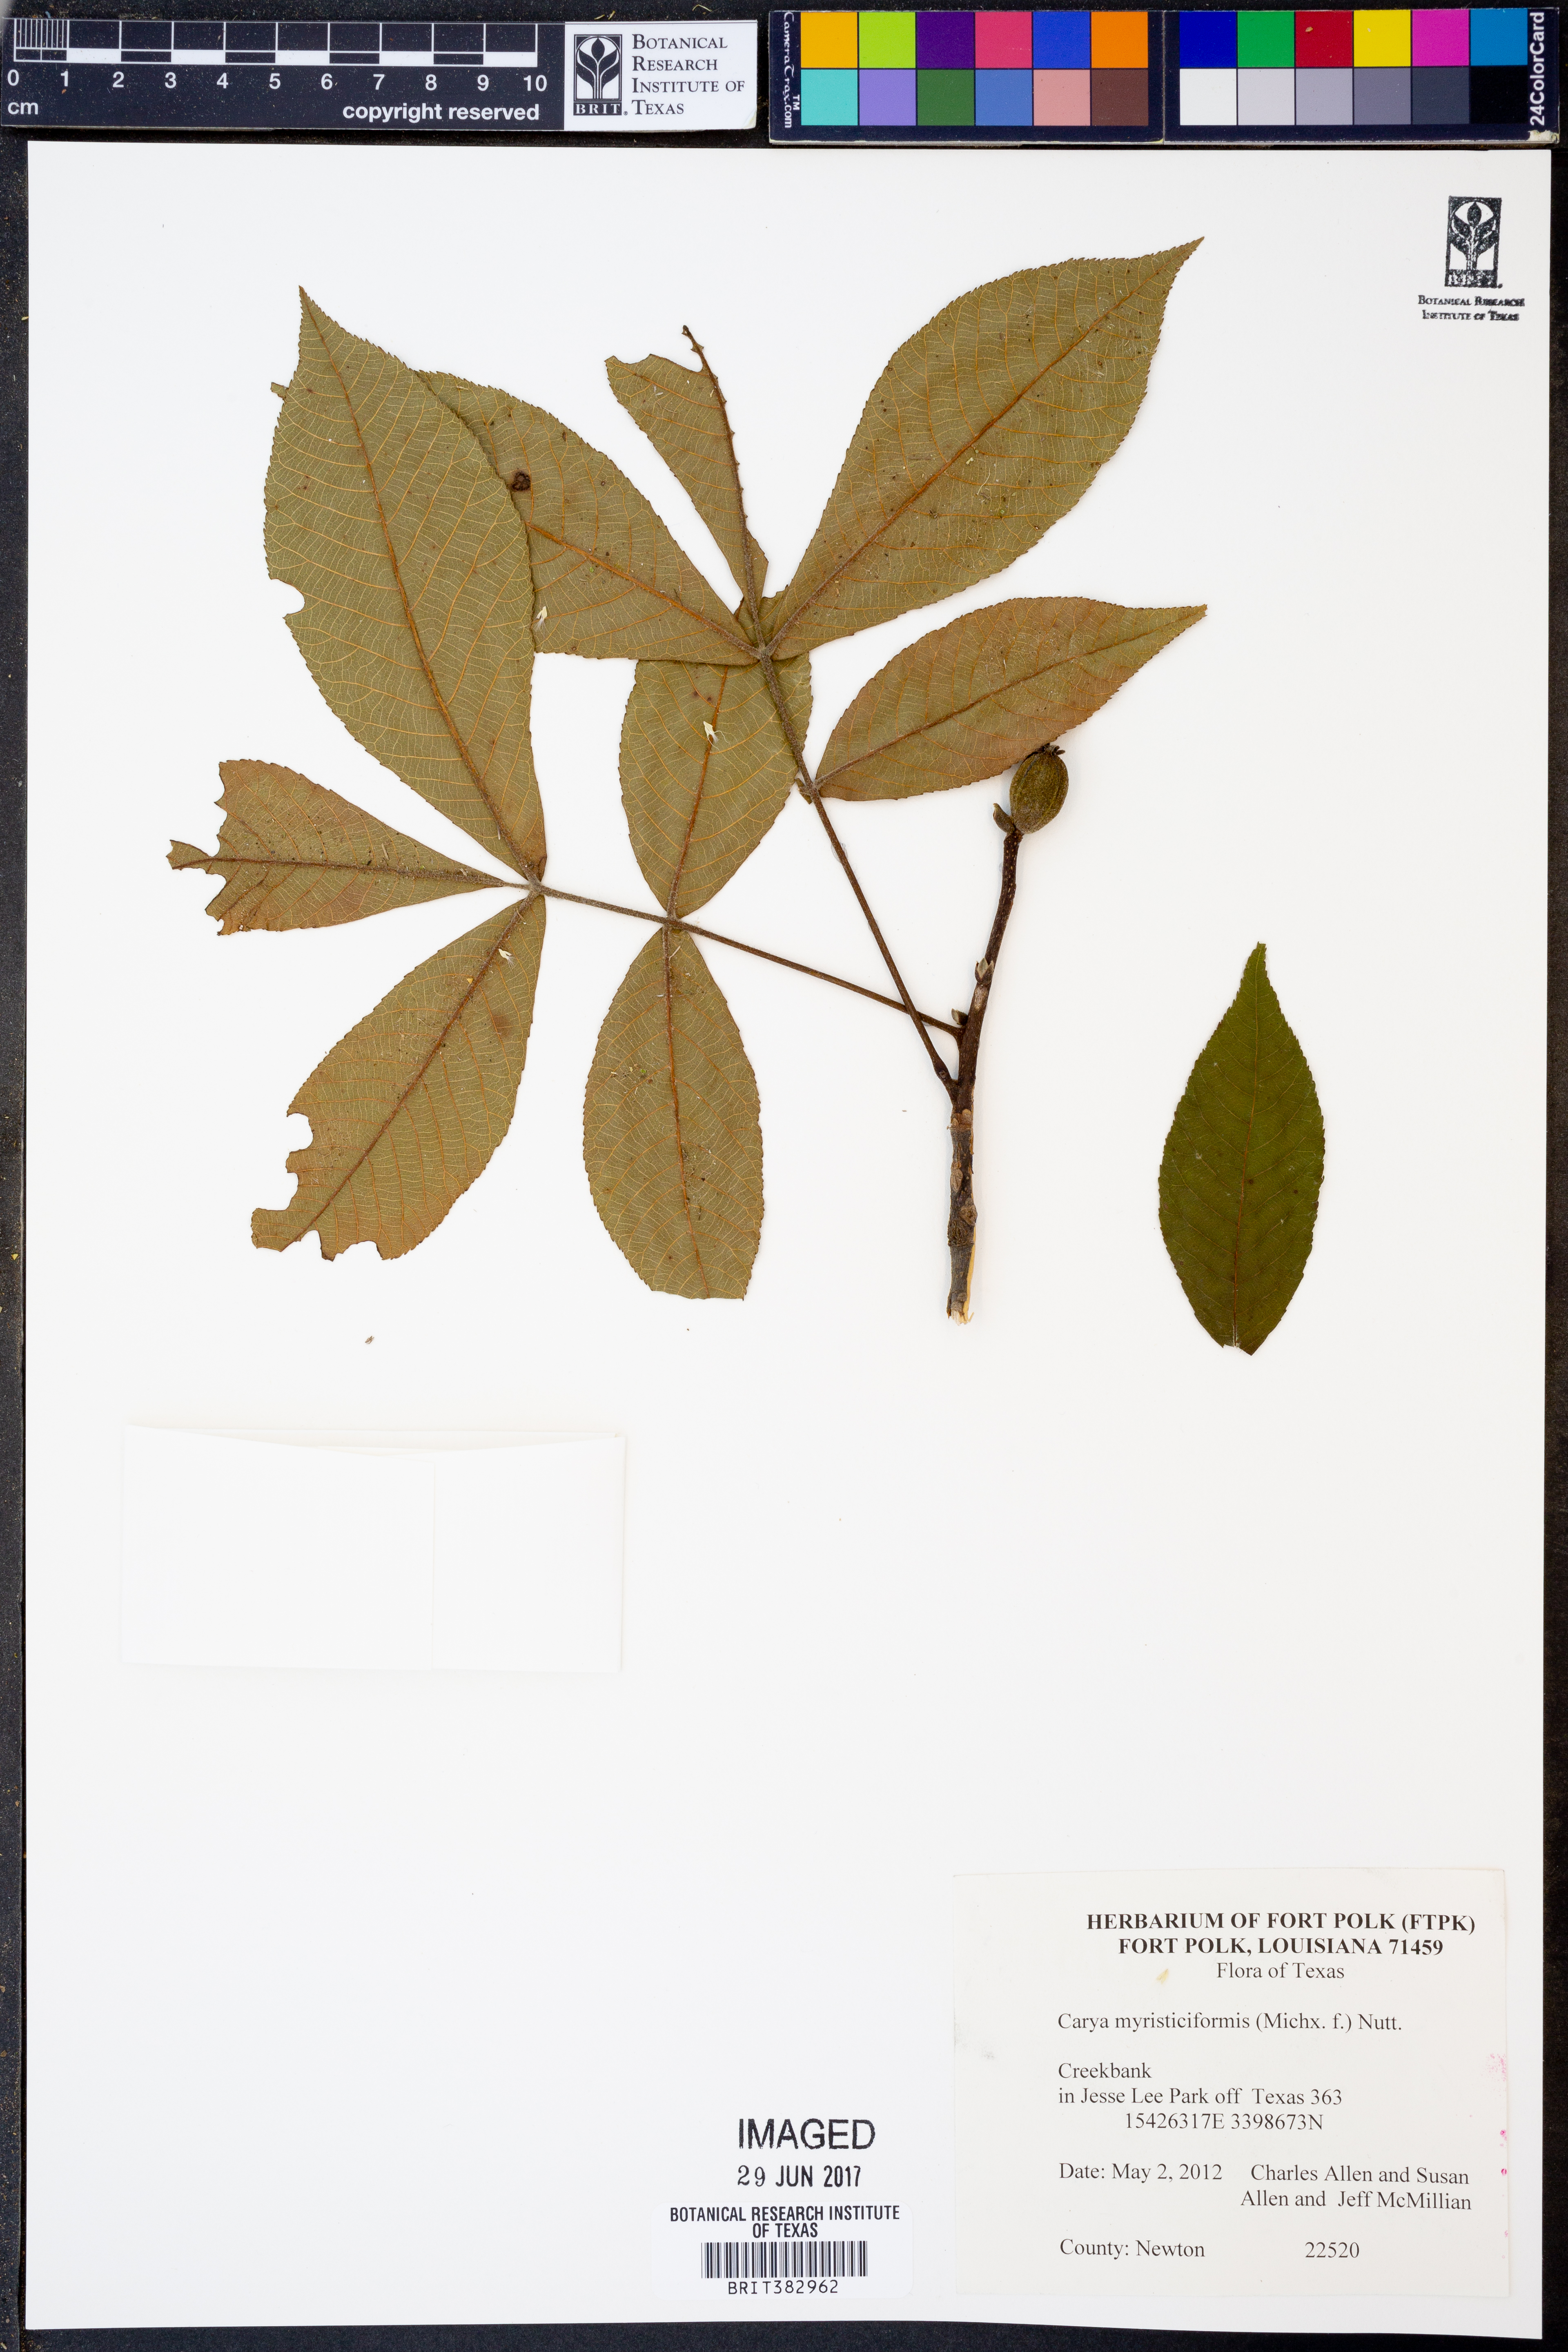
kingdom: Plantae
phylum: Tracheophyta
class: Magnoliopsida
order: Fagales
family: Juglandaceae
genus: Carya
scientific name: Carya myristiciformis
